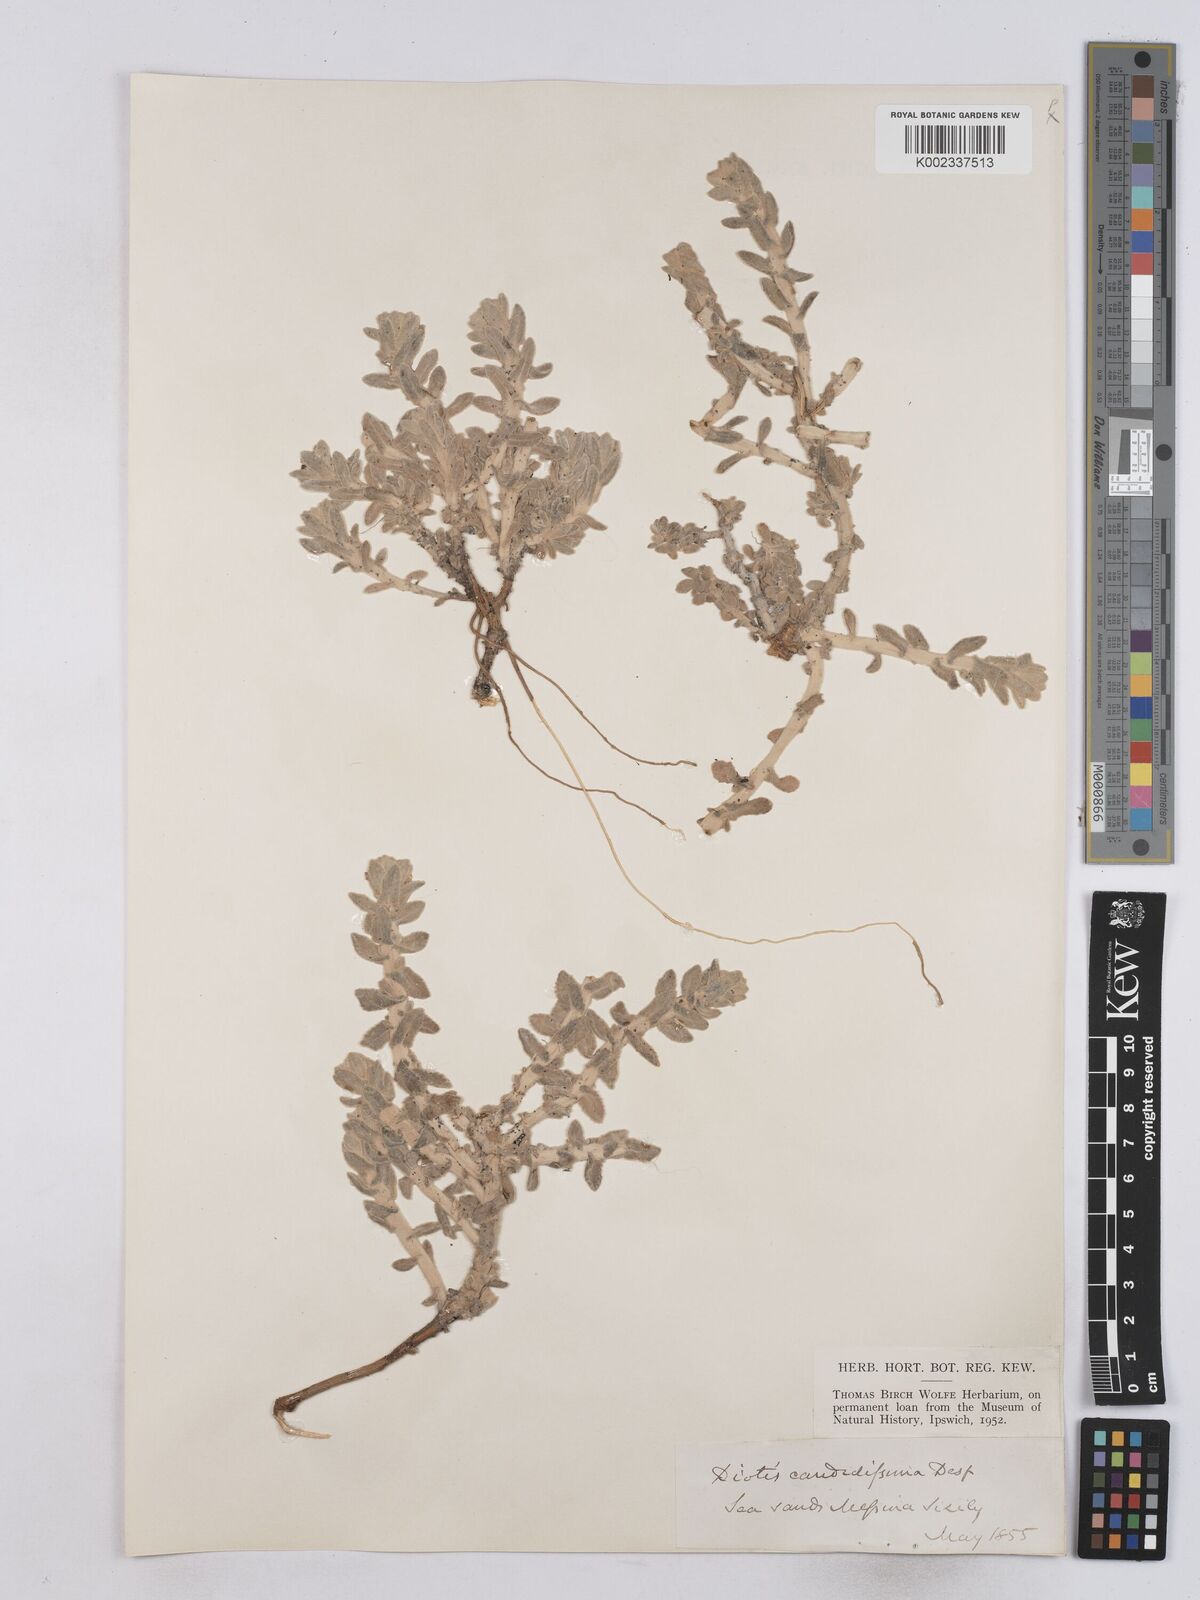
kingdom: Plantae
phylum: Tracheophyta
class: Magnoliopsida
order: Asterales
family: Asteraceae
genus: Achillea
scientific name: Achillea maritima
